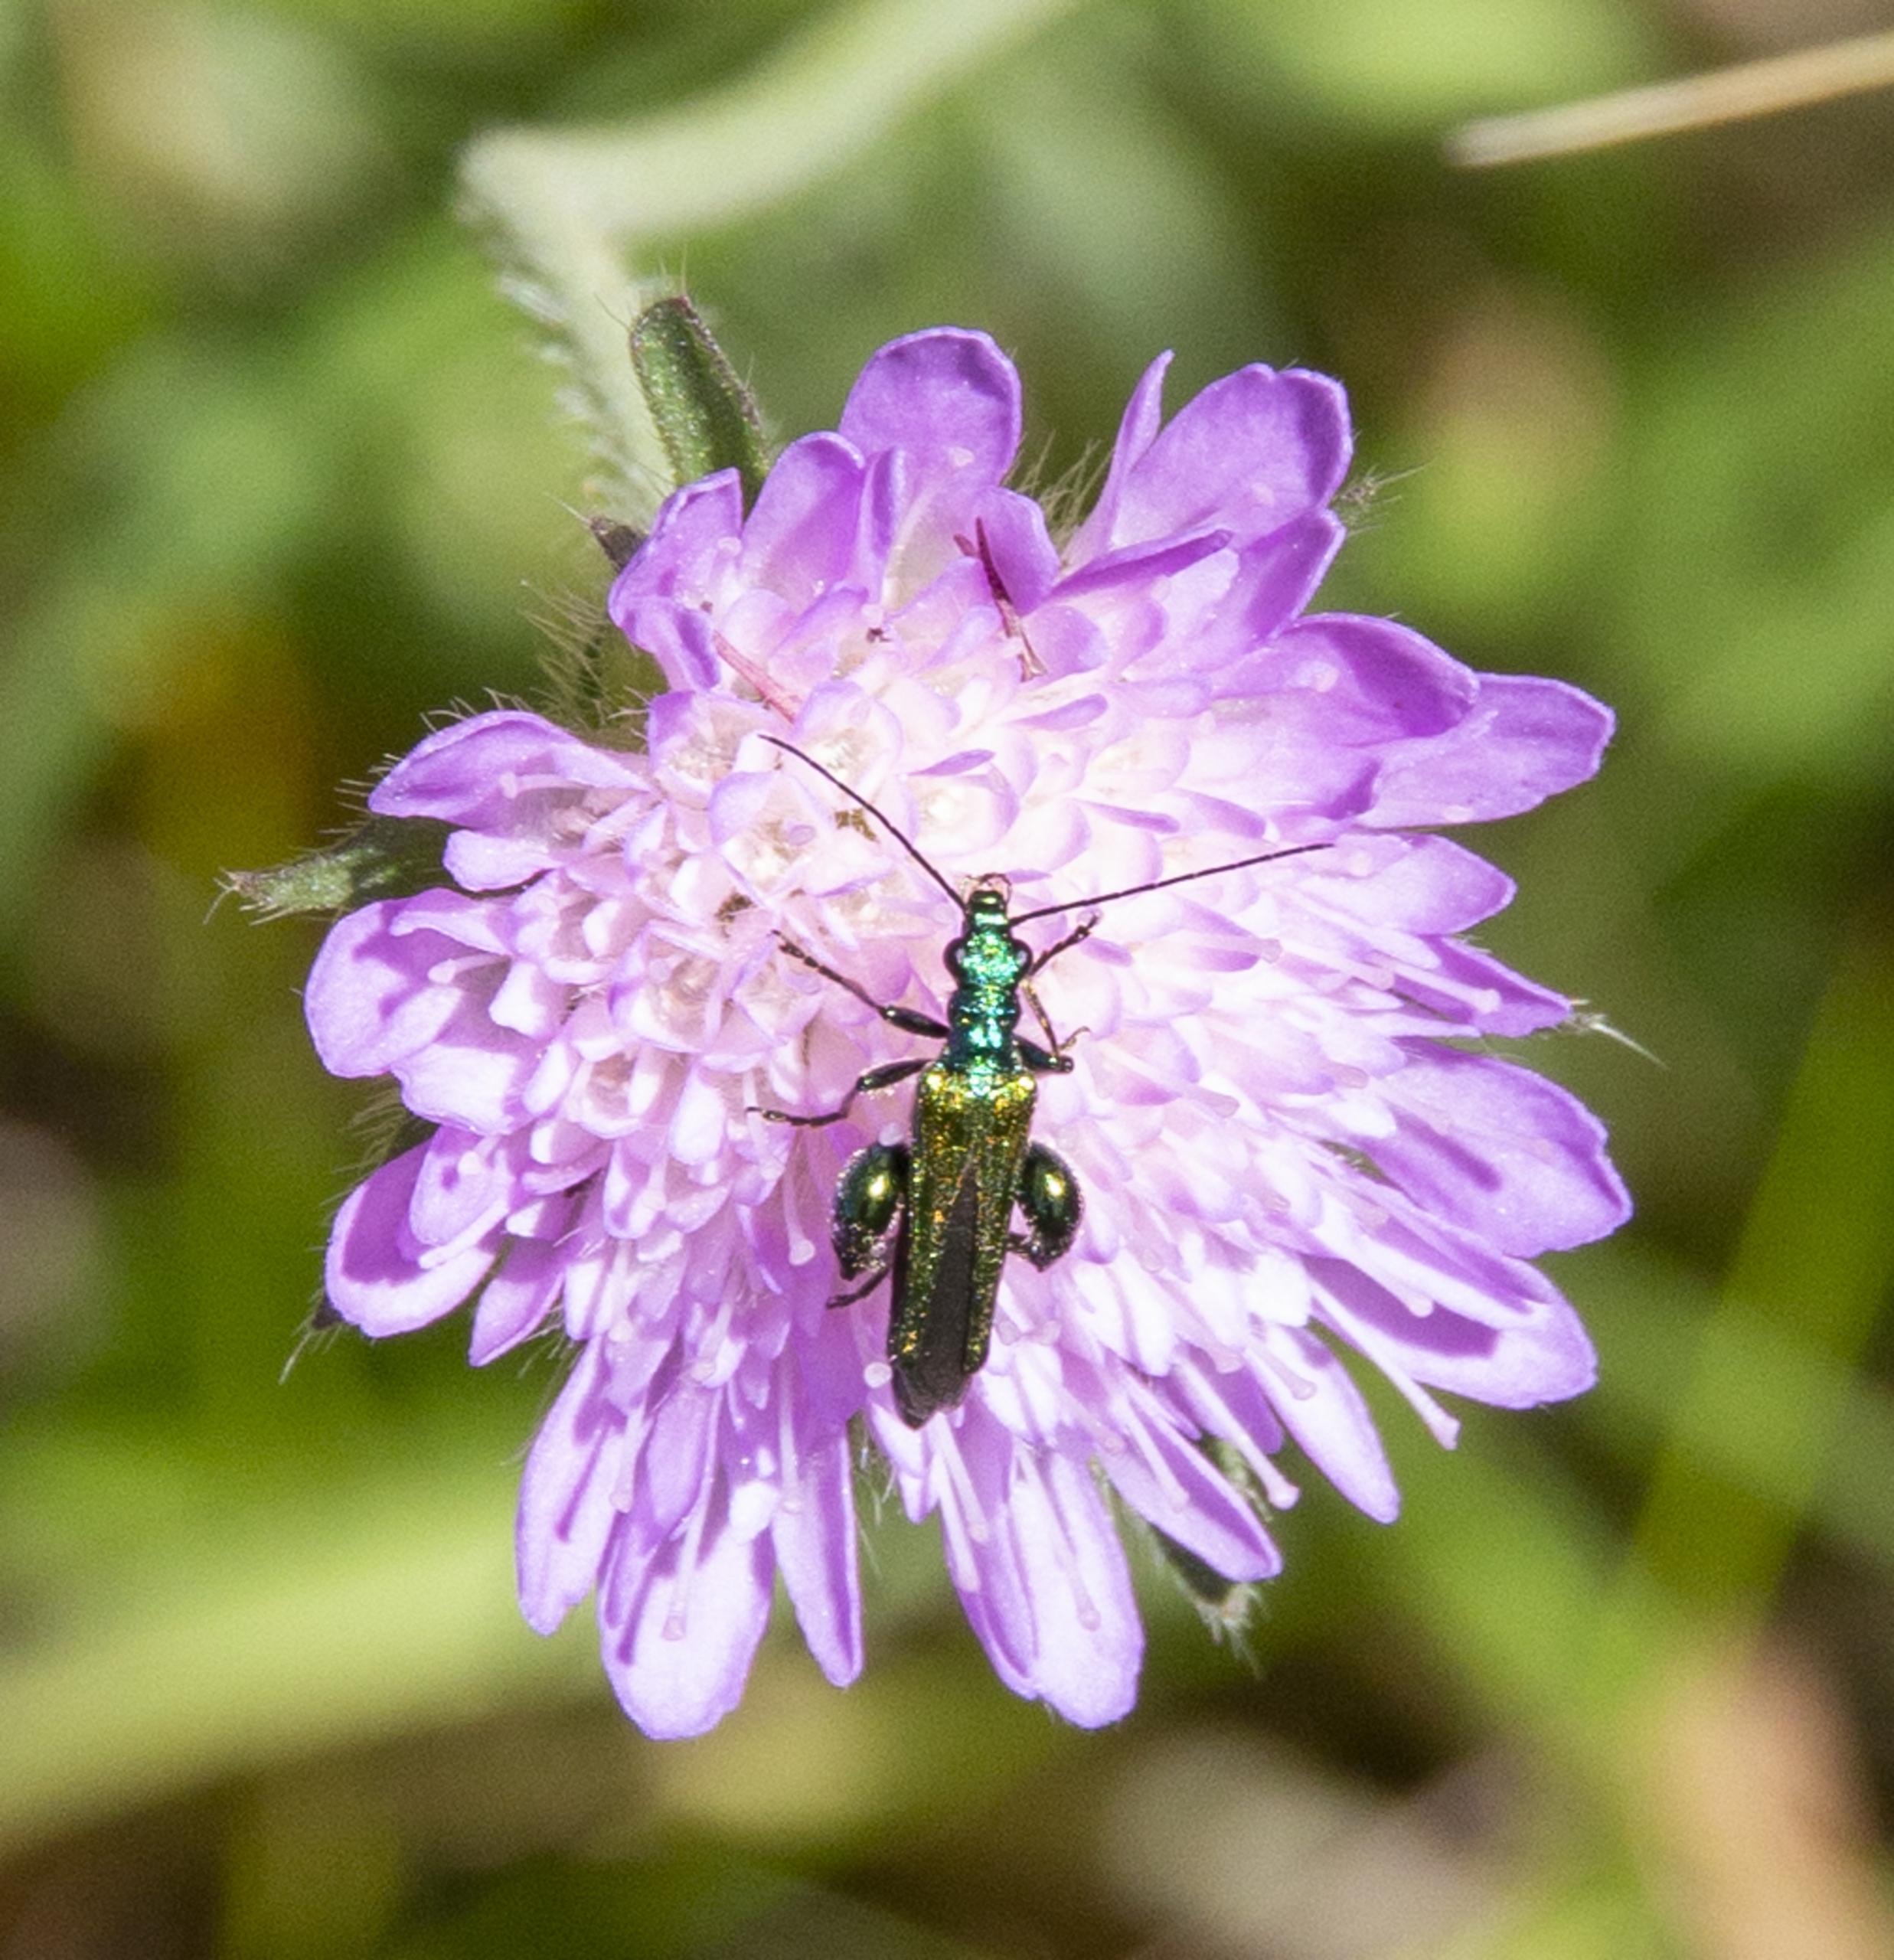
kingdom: Animalia
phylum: Arthropoda
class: Insecta
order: Coleoptera
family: Oedemeridae
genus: Oedemera
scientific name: Oedemera nobilis
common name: Tyklårssolbille
